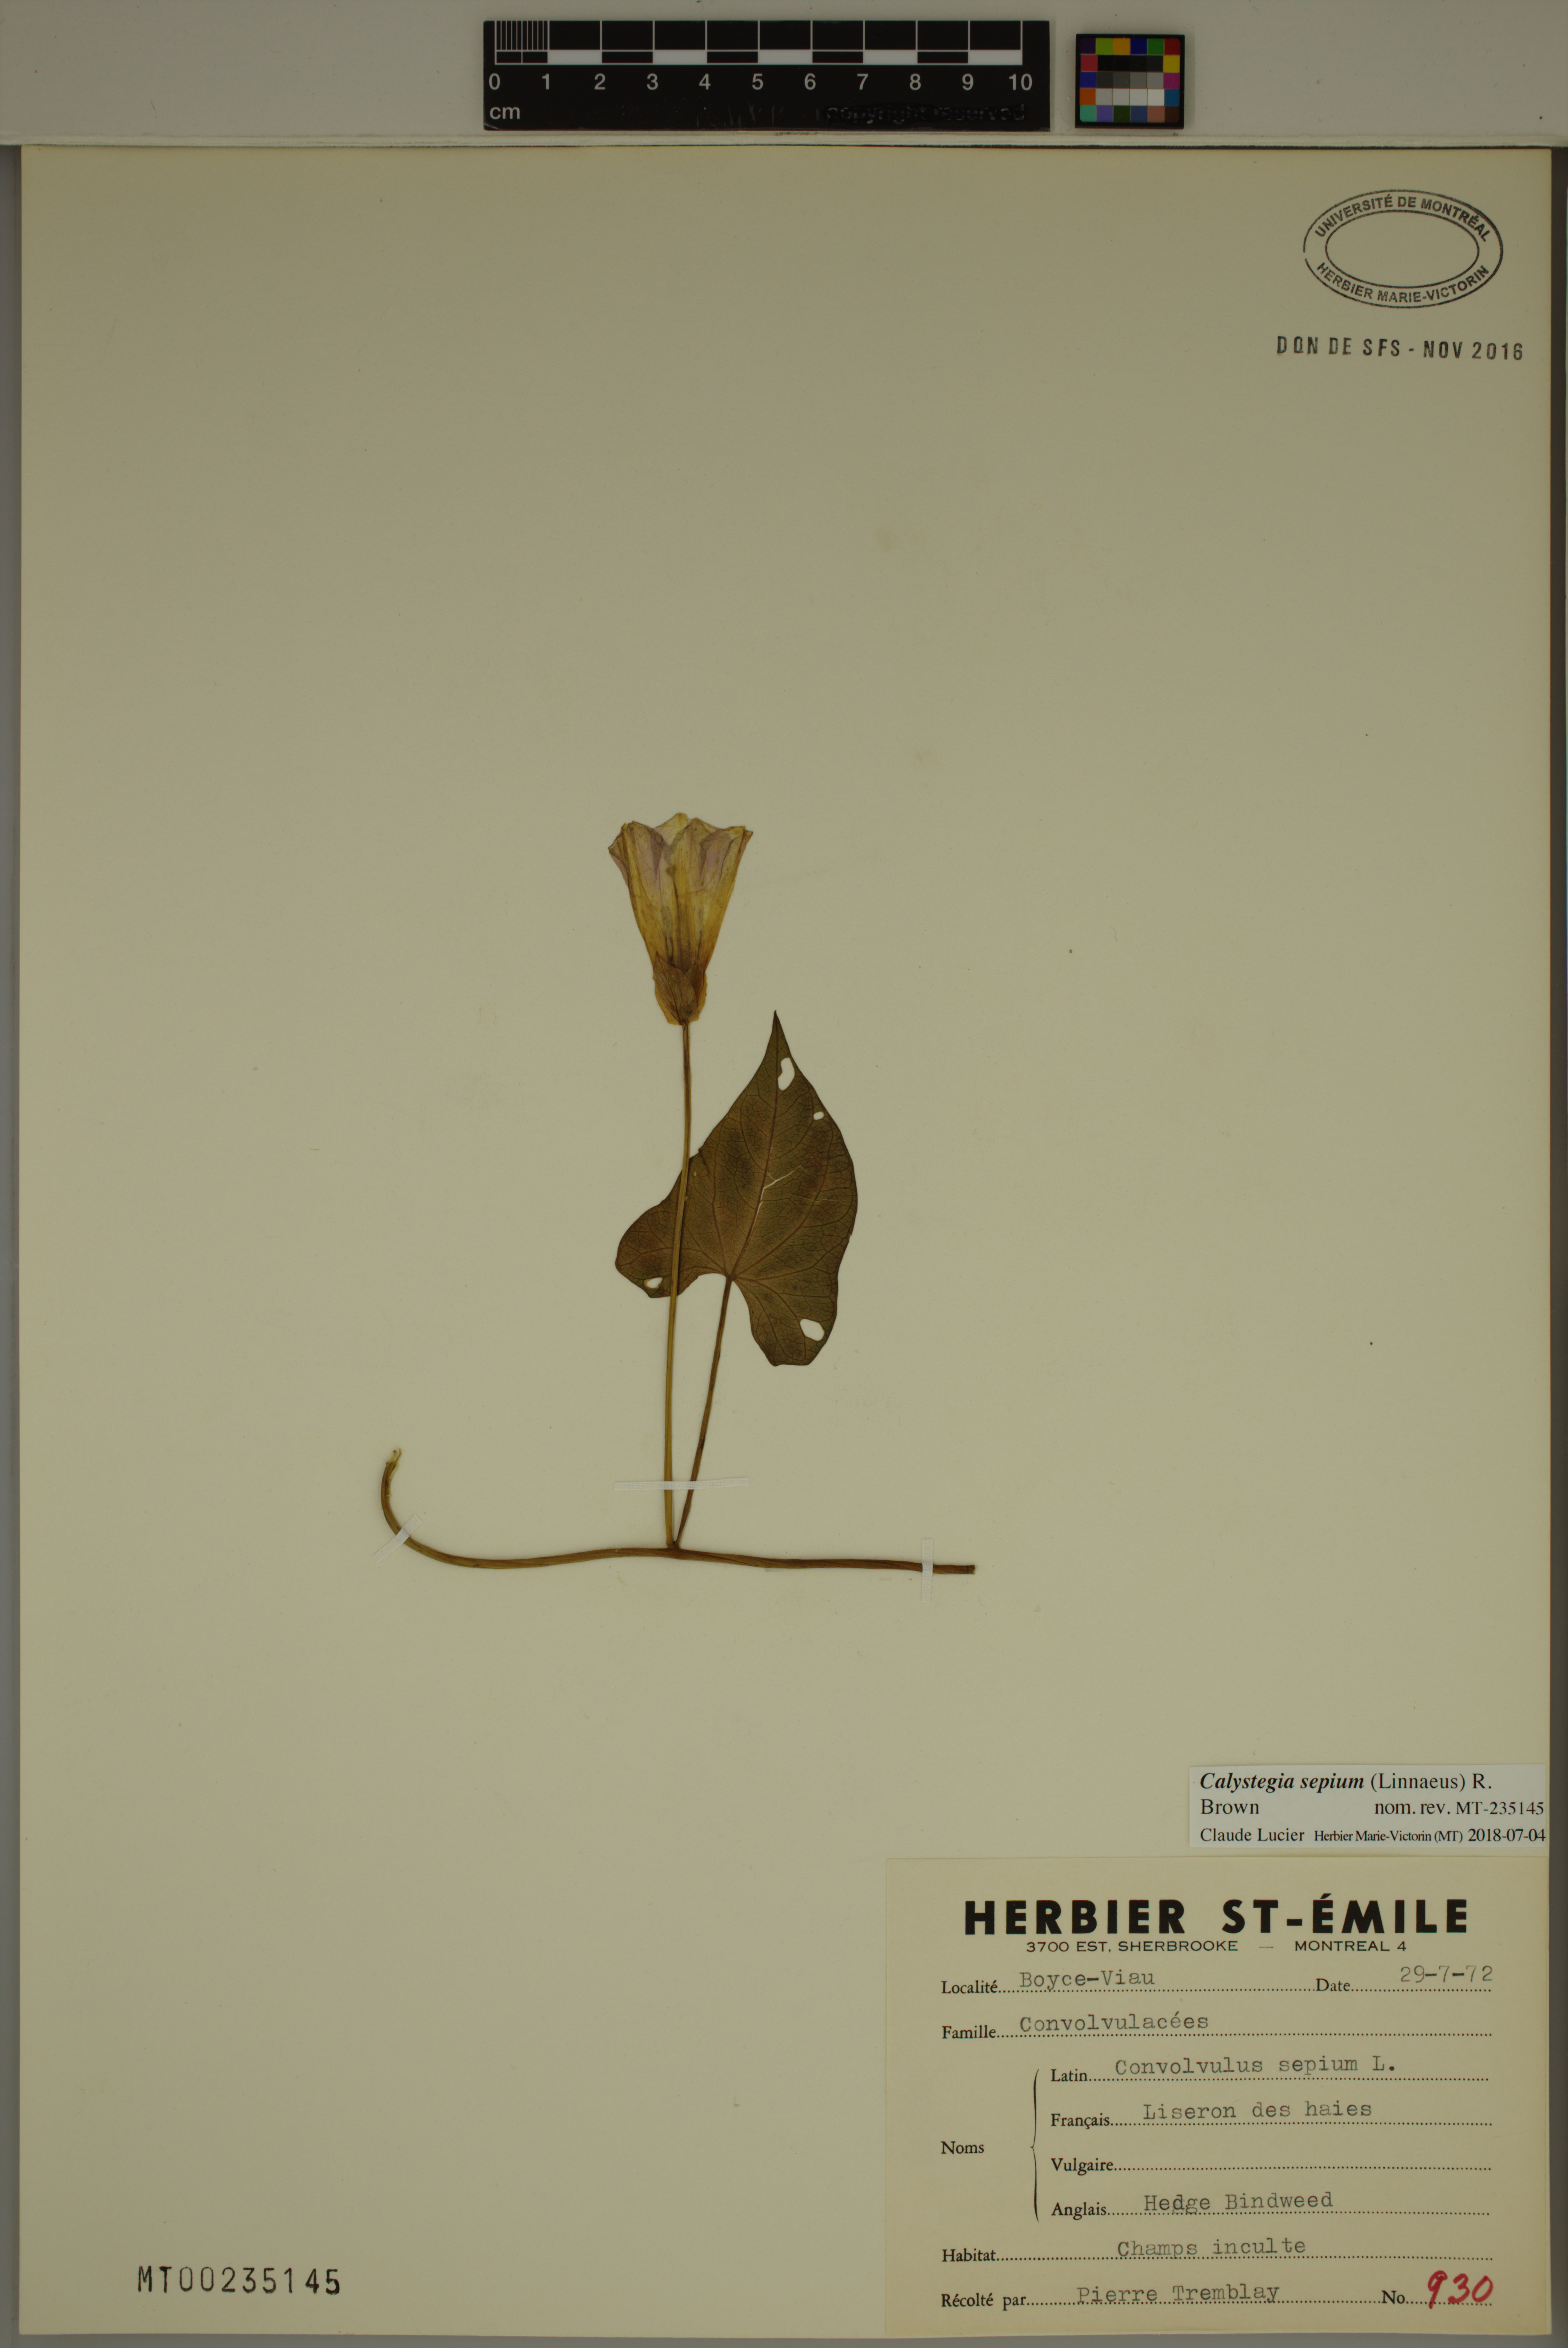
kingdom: Plantae
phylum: Tracheophyta
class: Magnoliopsida
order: Solanales
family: Convolvulaceae
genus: Calystegia
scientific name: Calystegia sepium
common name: Hedge bindweed
